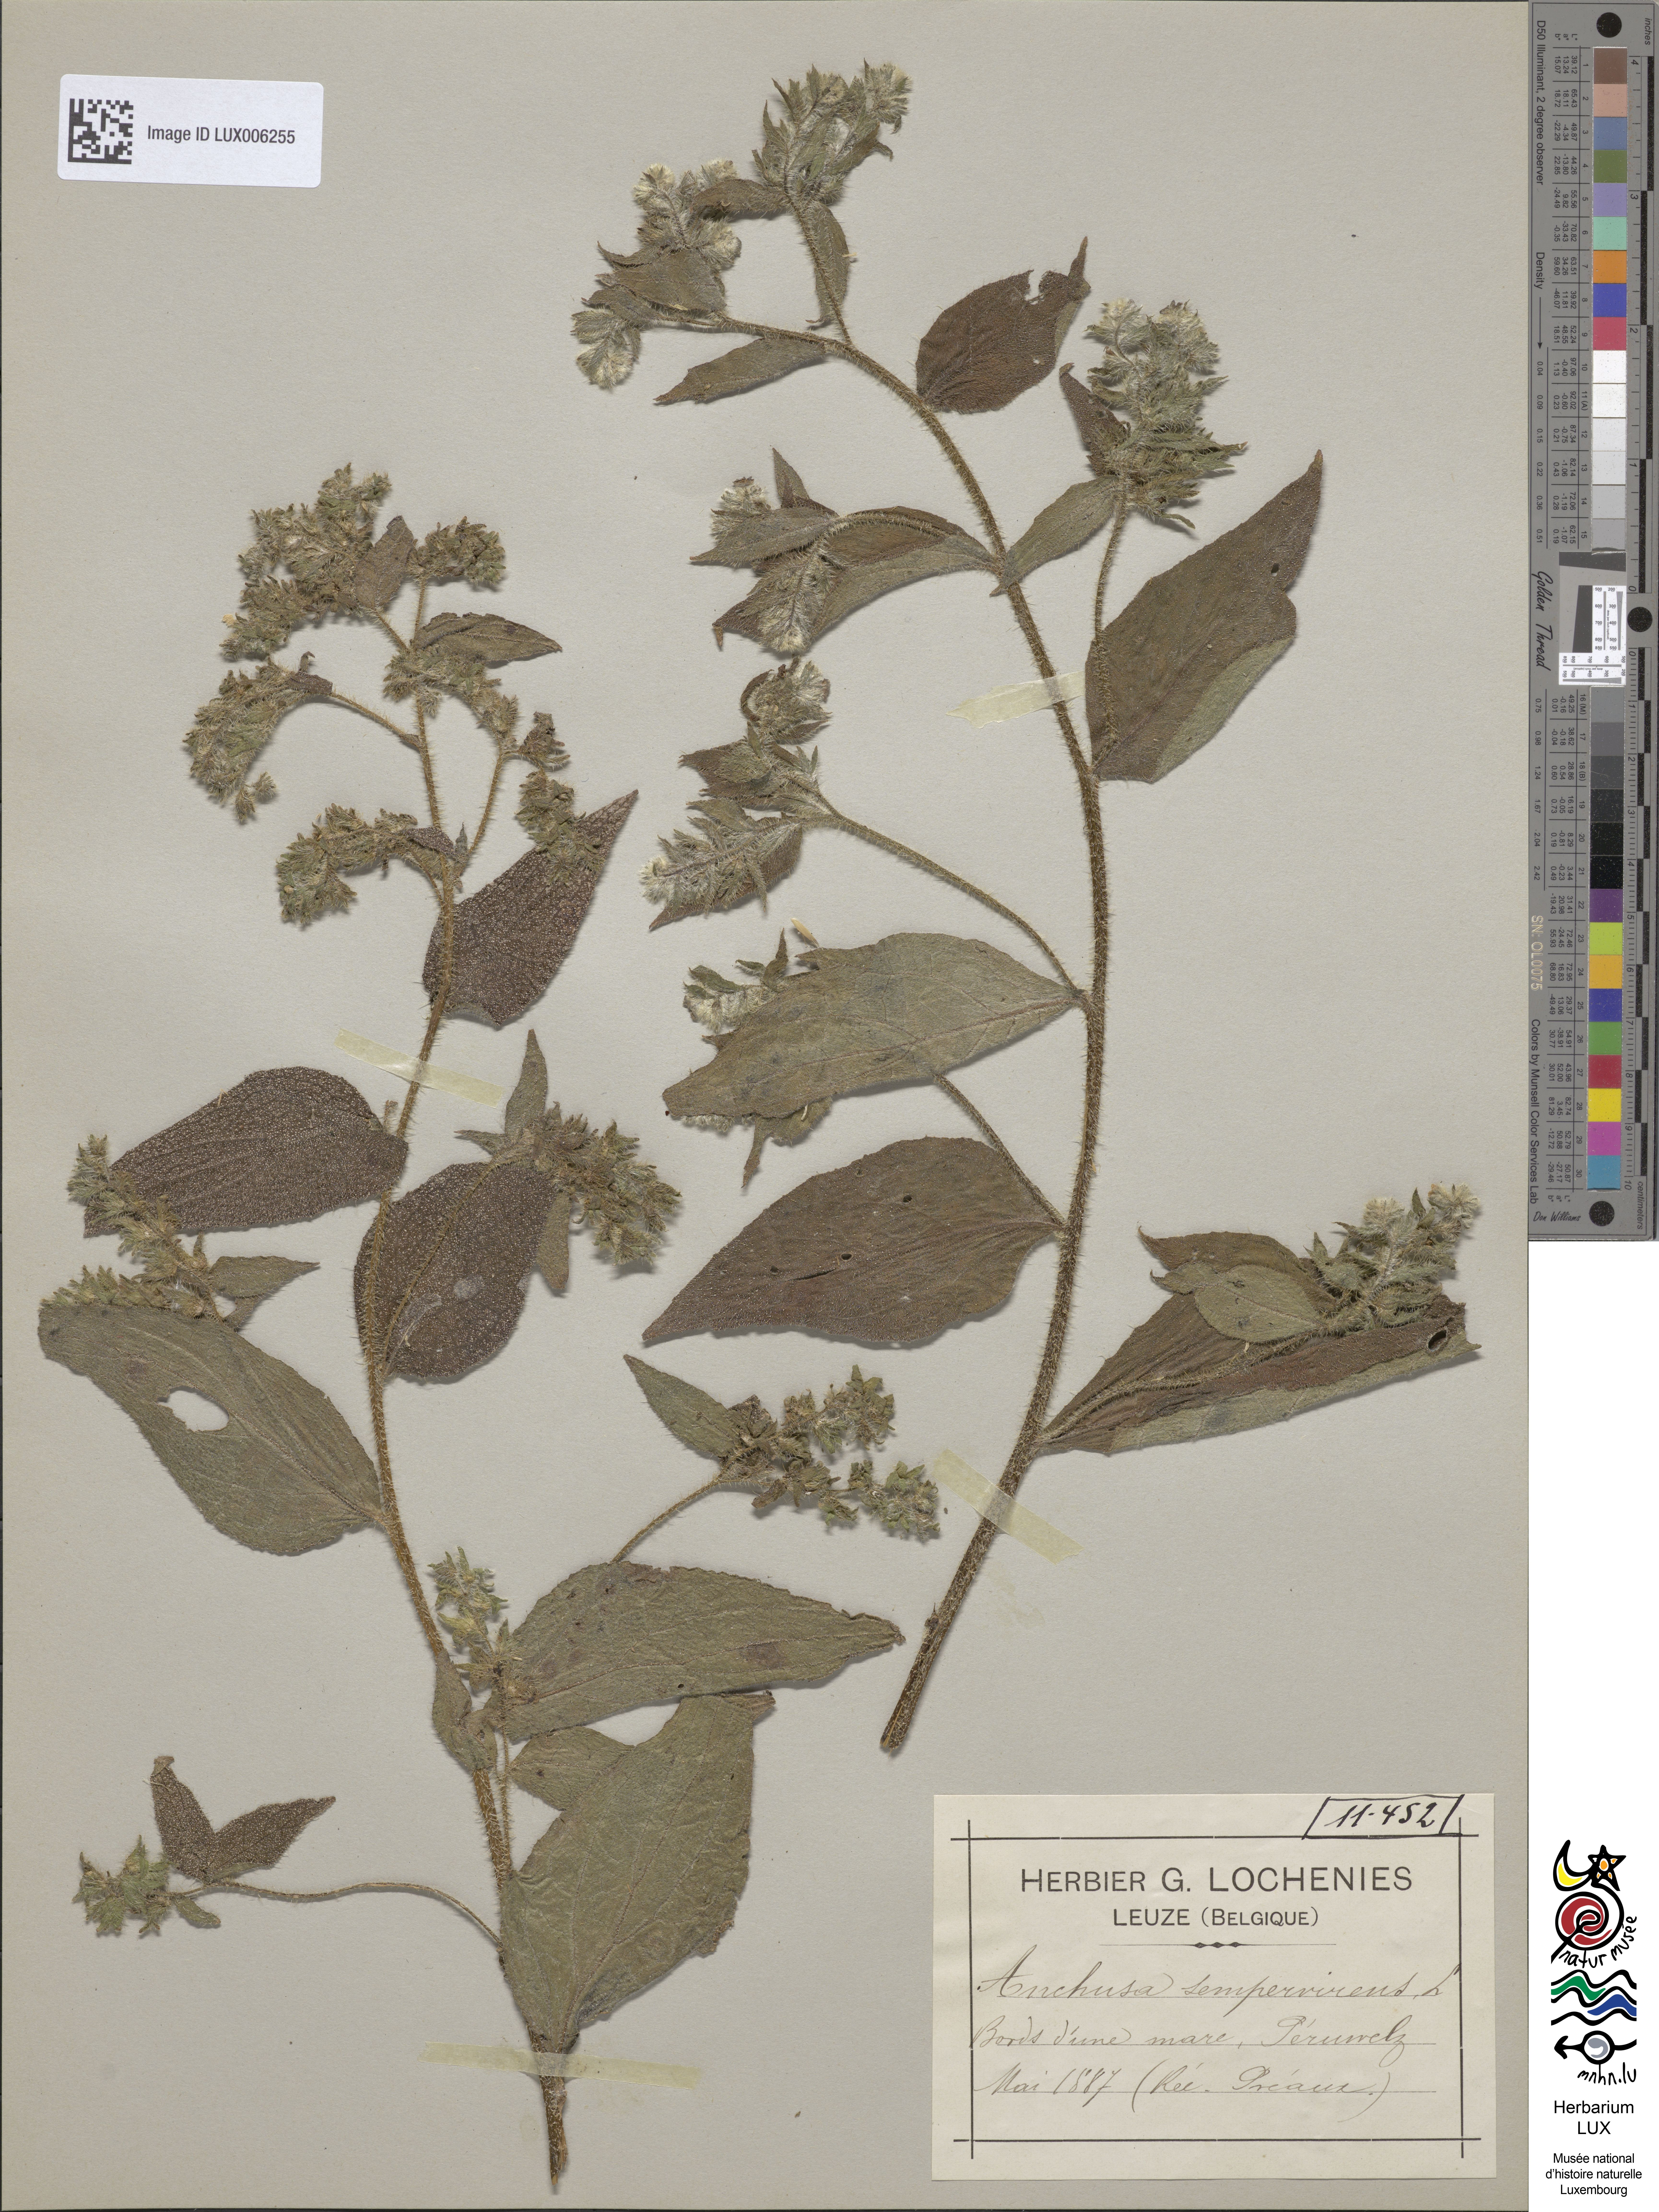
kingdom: Plantae
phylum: Tracheophyta
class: Magnoliopsida
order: Boraginales
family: Boraginaceae
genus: Pentaglottis
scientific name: Pentaglottis sempervirens
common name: Green alkanet
